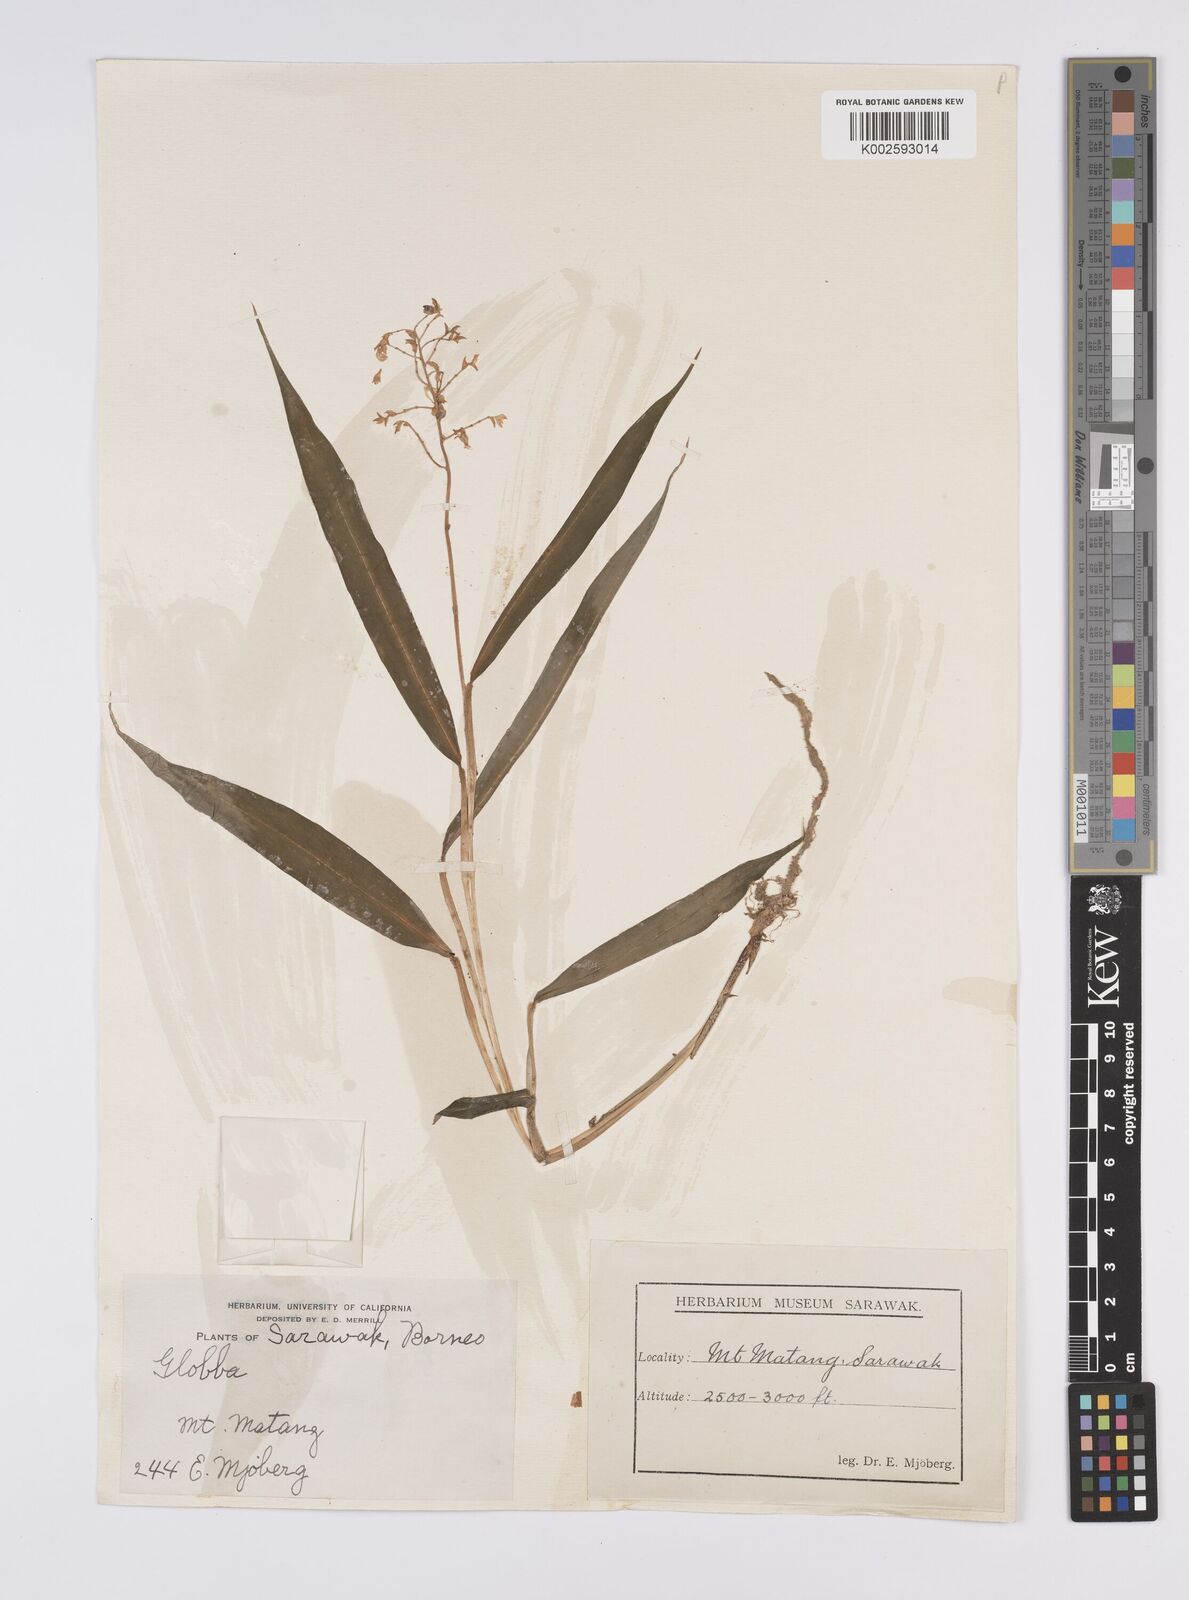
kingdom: Plantae
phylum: Tracheophyta
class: Liliopsida
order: Zingiberales
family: Zingiberaceae
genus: Globba
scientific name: Globba brachyanthera
